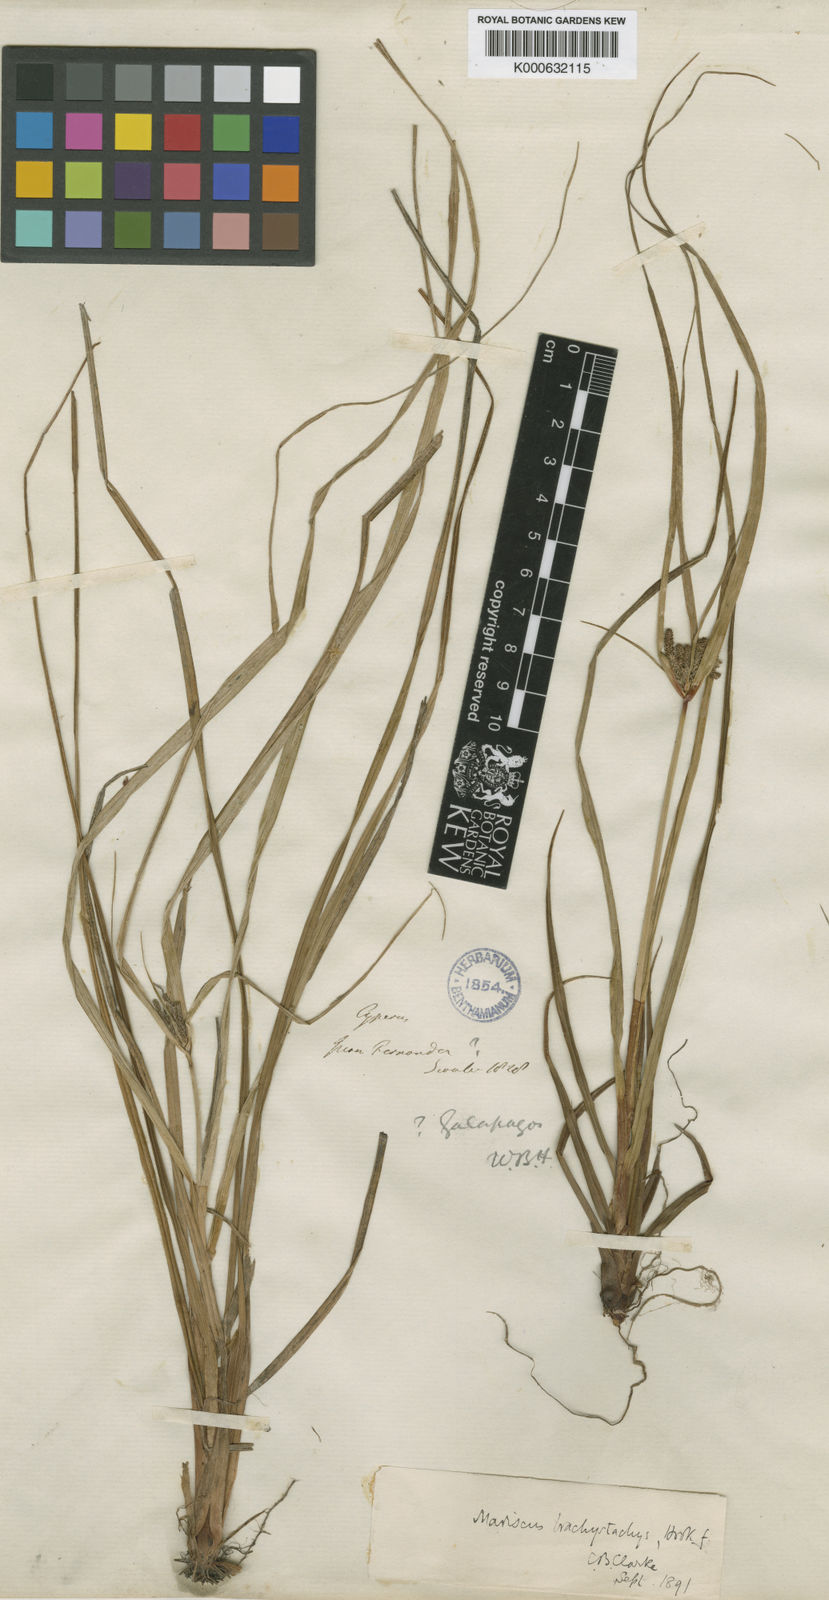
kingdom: Plantae
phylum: Tracheophyta
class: Liliopsida
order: Poales
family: Cyperaceae
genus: Cyperus
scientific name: Cyperus anderssonii
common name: Andersson's sedge
